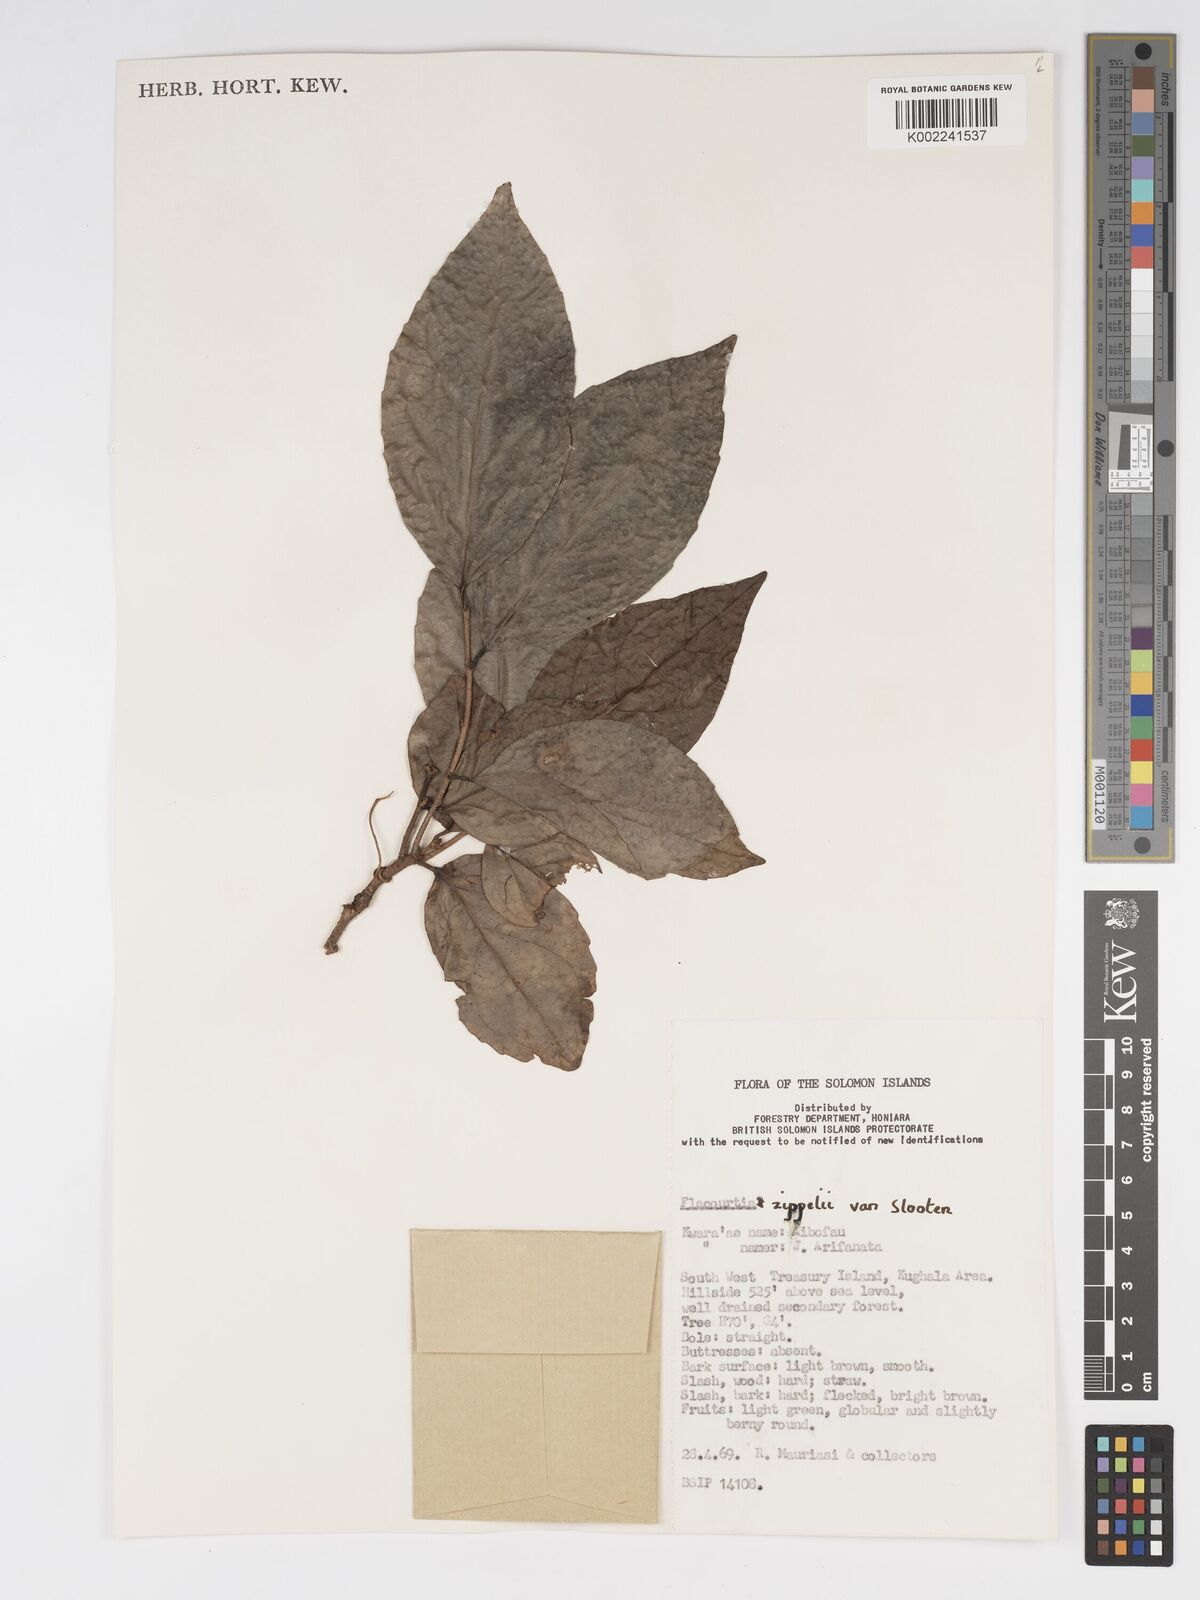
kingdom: Plantae
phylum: Tracheophyta
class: Magnoliopsida
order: Malpighiales
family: Salicaceae
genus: Flacourtia
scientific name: Flacourtia zippelii
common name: Zippeli plum
